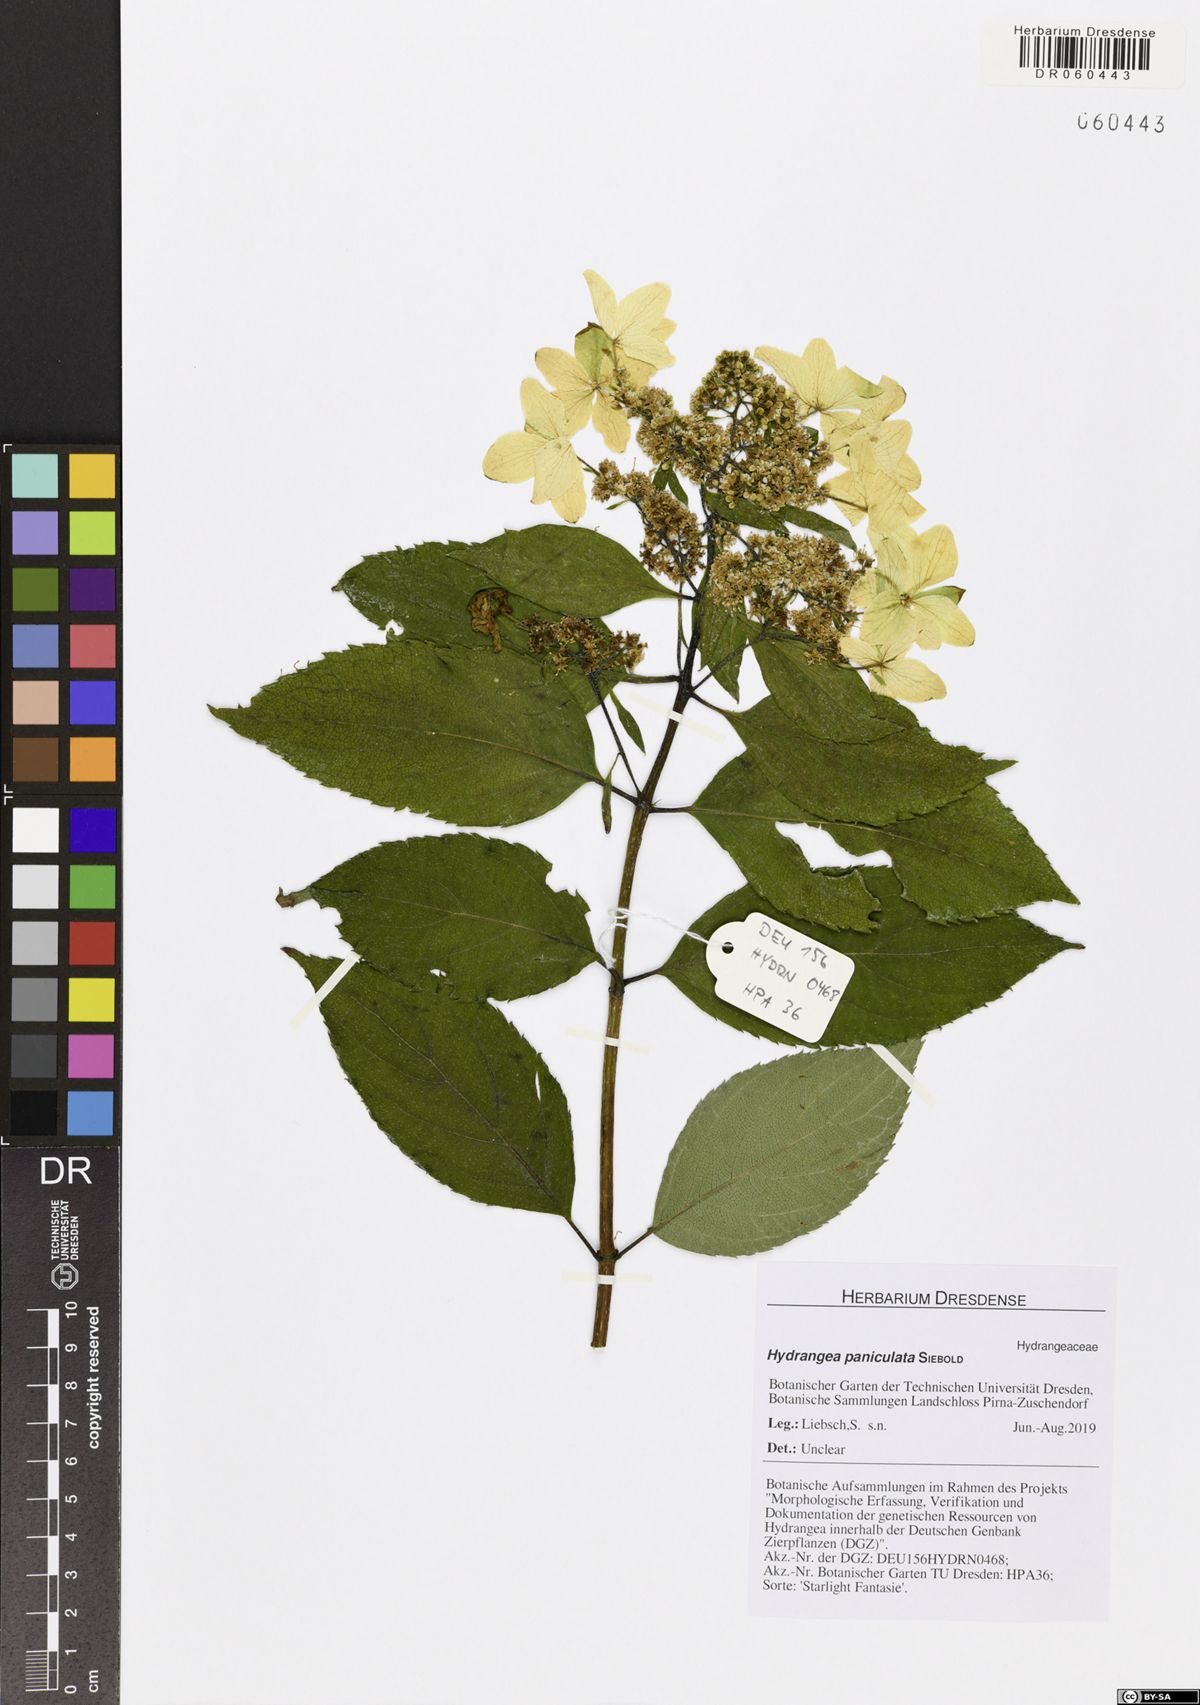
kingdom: Plantae
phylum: Tracheophyta
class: Magnoliopsida
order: Cornales
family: Hydrangeaceae
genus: Hydrangea
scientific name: Hydrangea paniculata
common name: Panicled hydrangea
